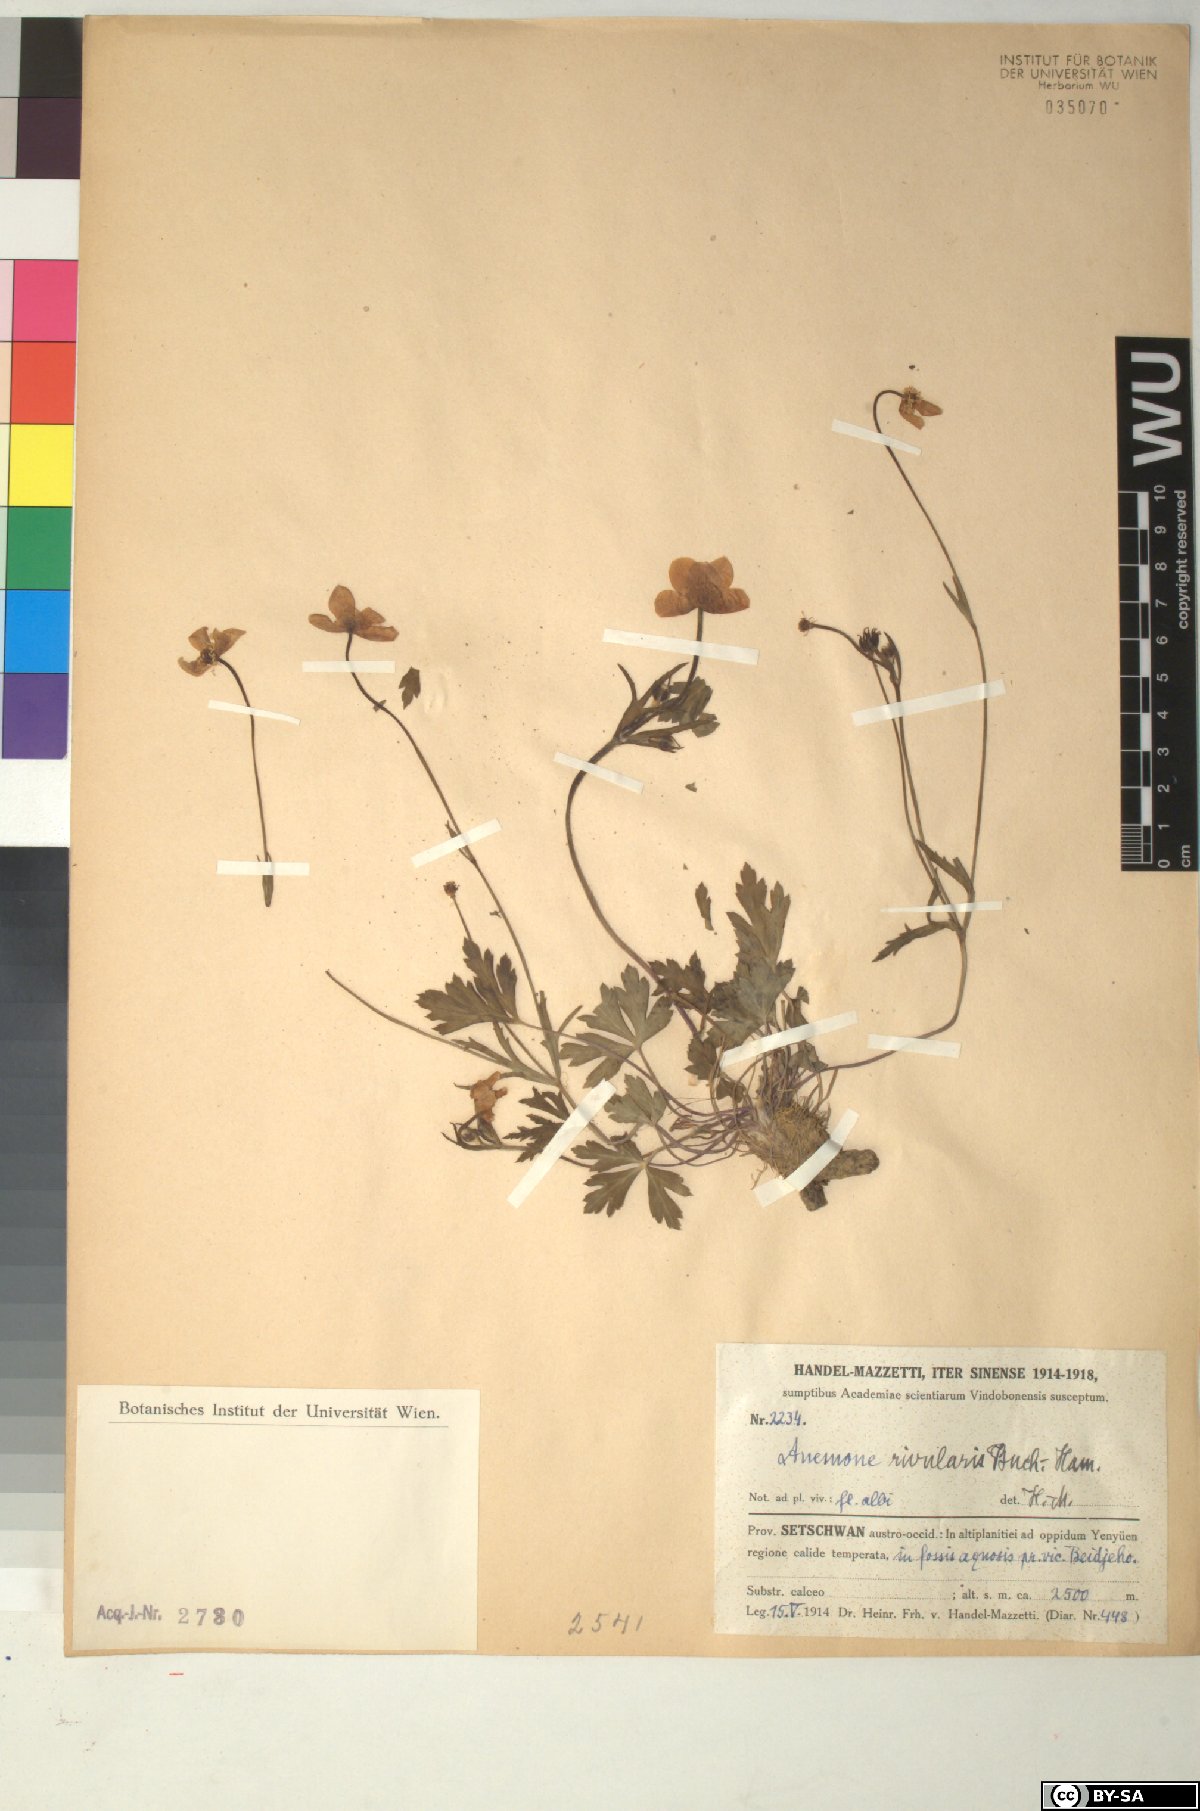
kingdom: Plantae
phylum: Tracheophyta
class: Magnoliopsida
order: Ranunculales
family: Ranunculaceae
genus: Eriocapitella
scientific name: Eriocapitella rivularis
